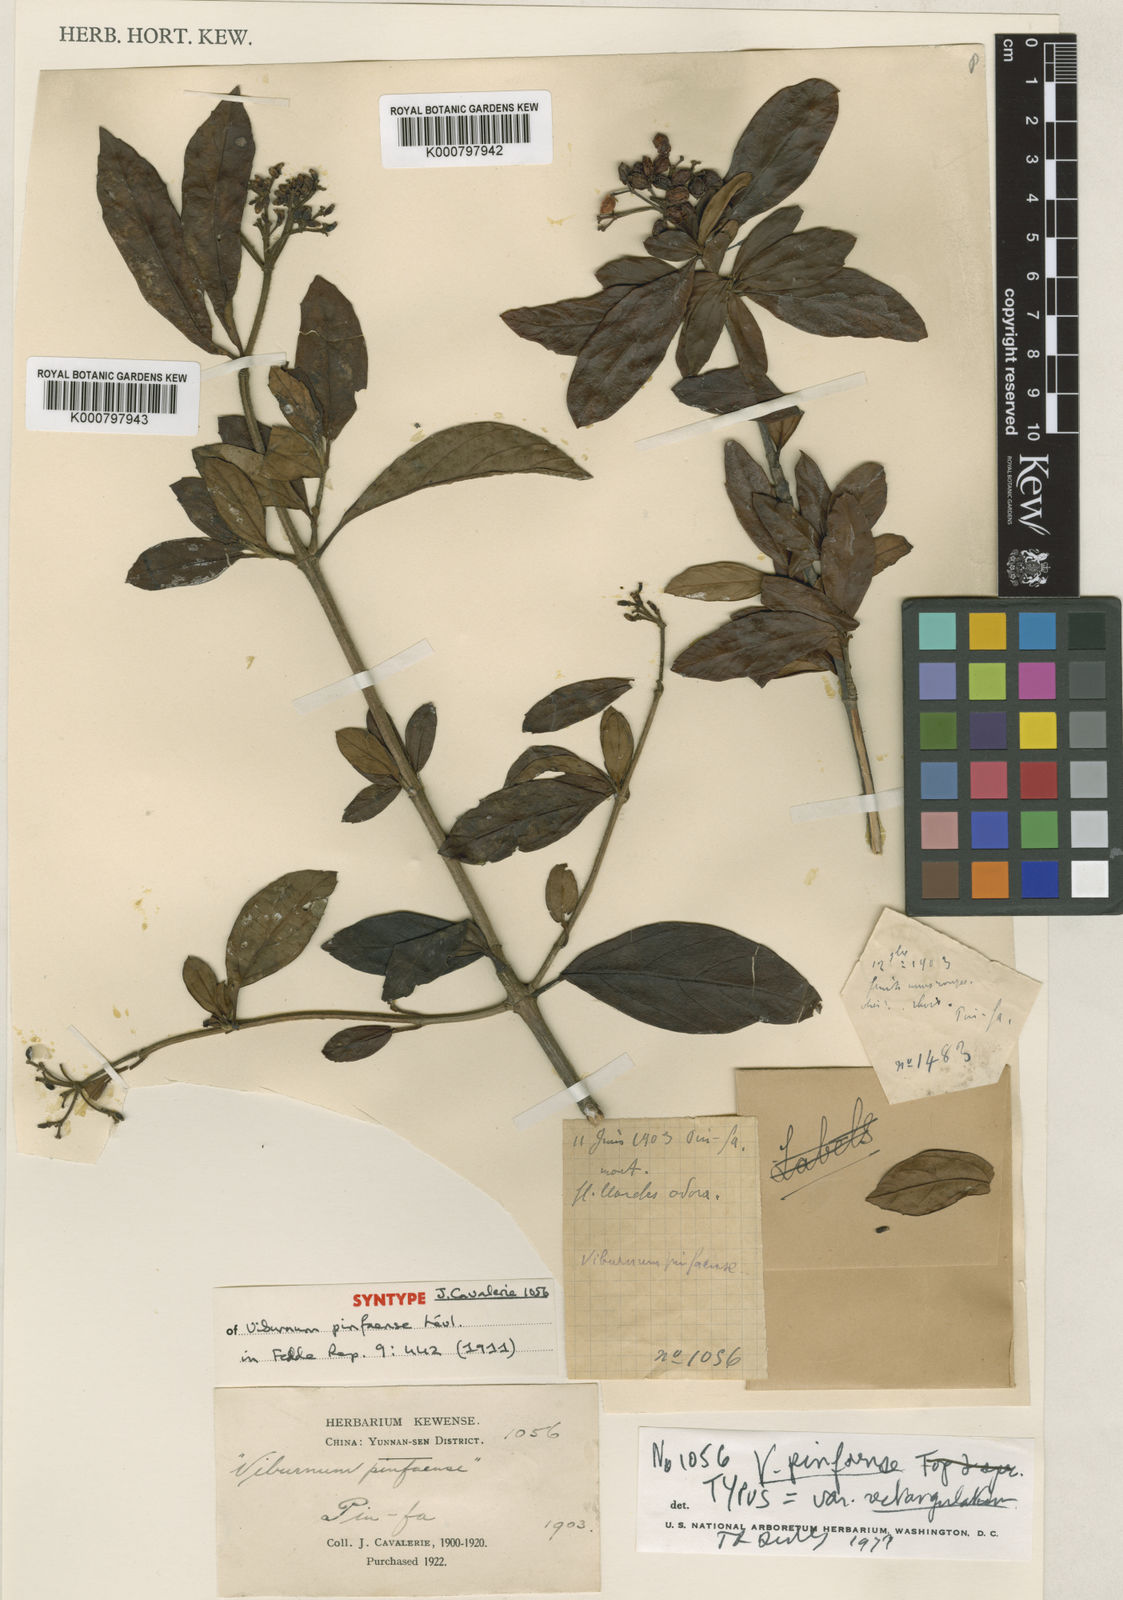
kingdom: Plantae
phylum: Tracheophyta
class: Magnoliopsida
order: Dipsacales
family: Viburnaceae
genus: Viburnum
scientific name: Viburnum foetidum
